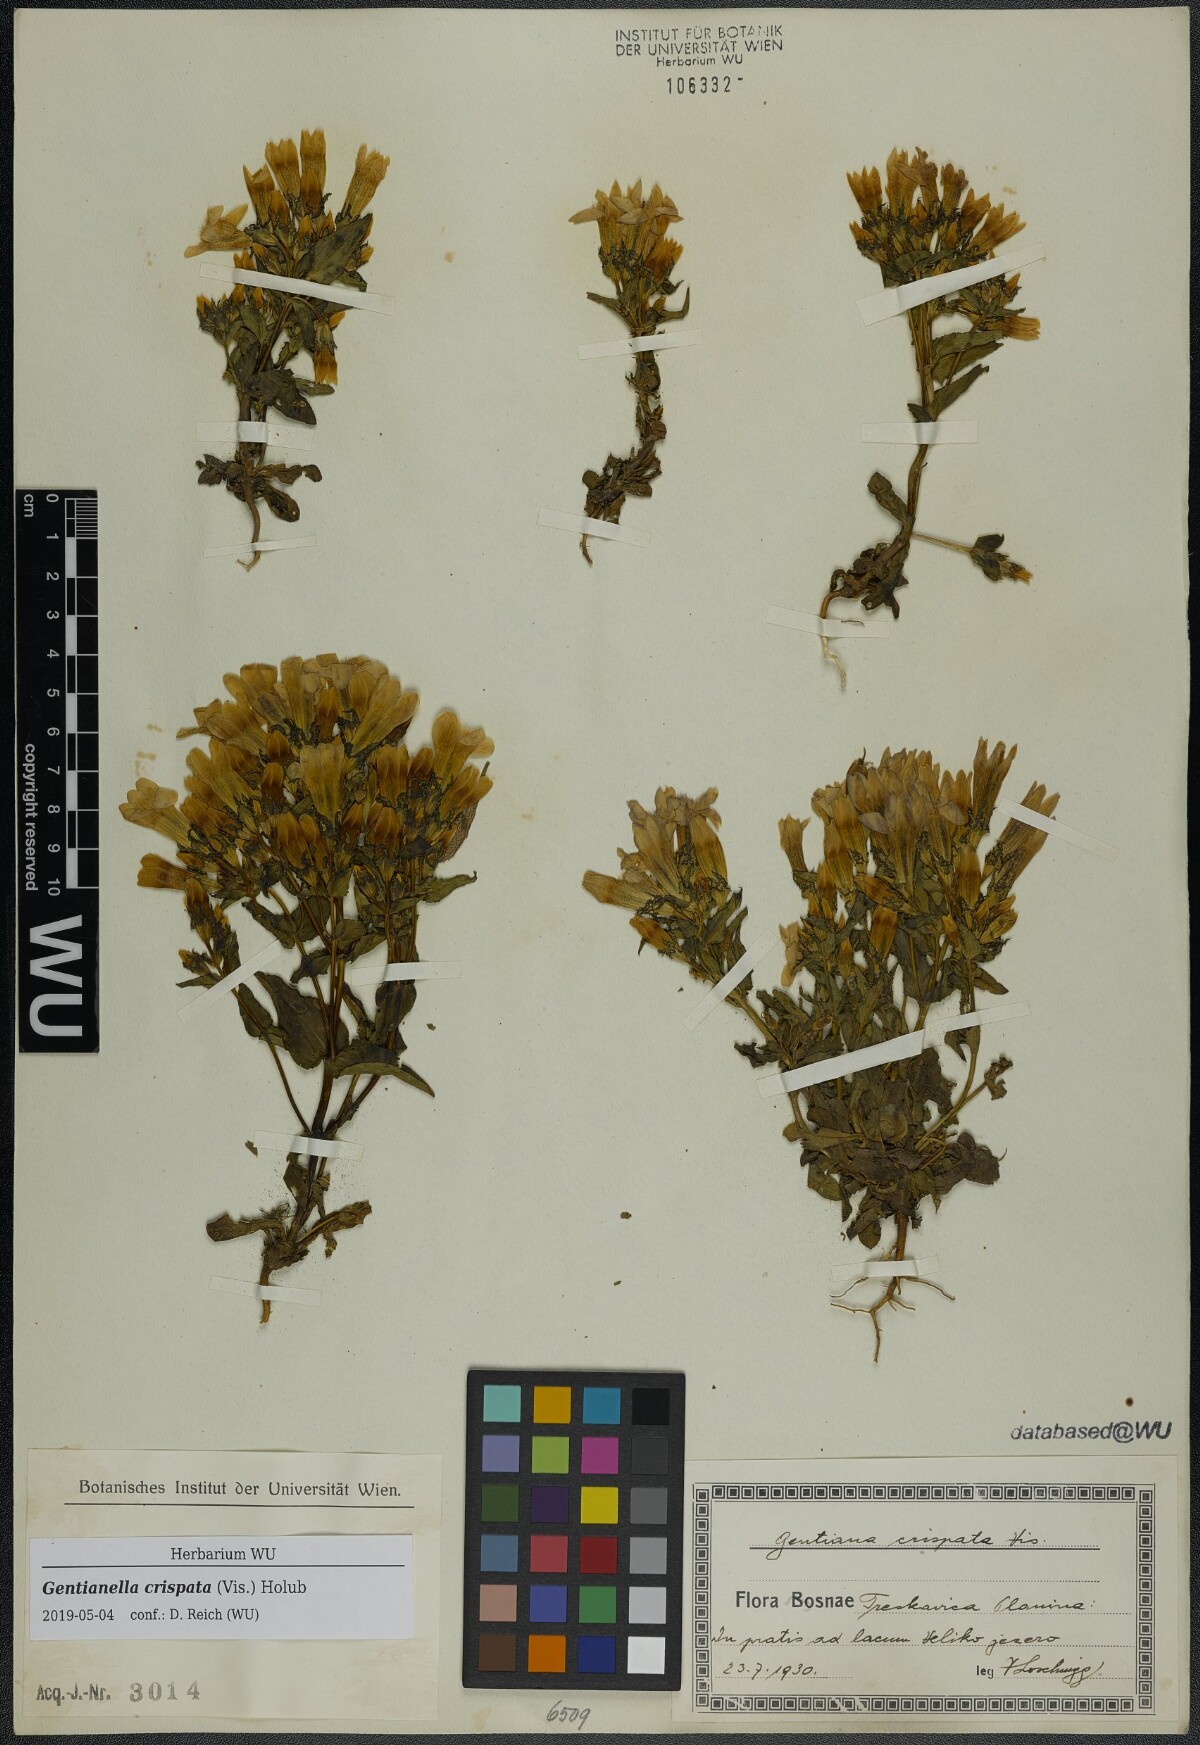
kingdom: Plantae
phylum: Tracheophyta
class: Magnoliopsida
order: Gentianales
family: Gentianaceae
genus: Gentianella
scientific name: Gentianella crispata
